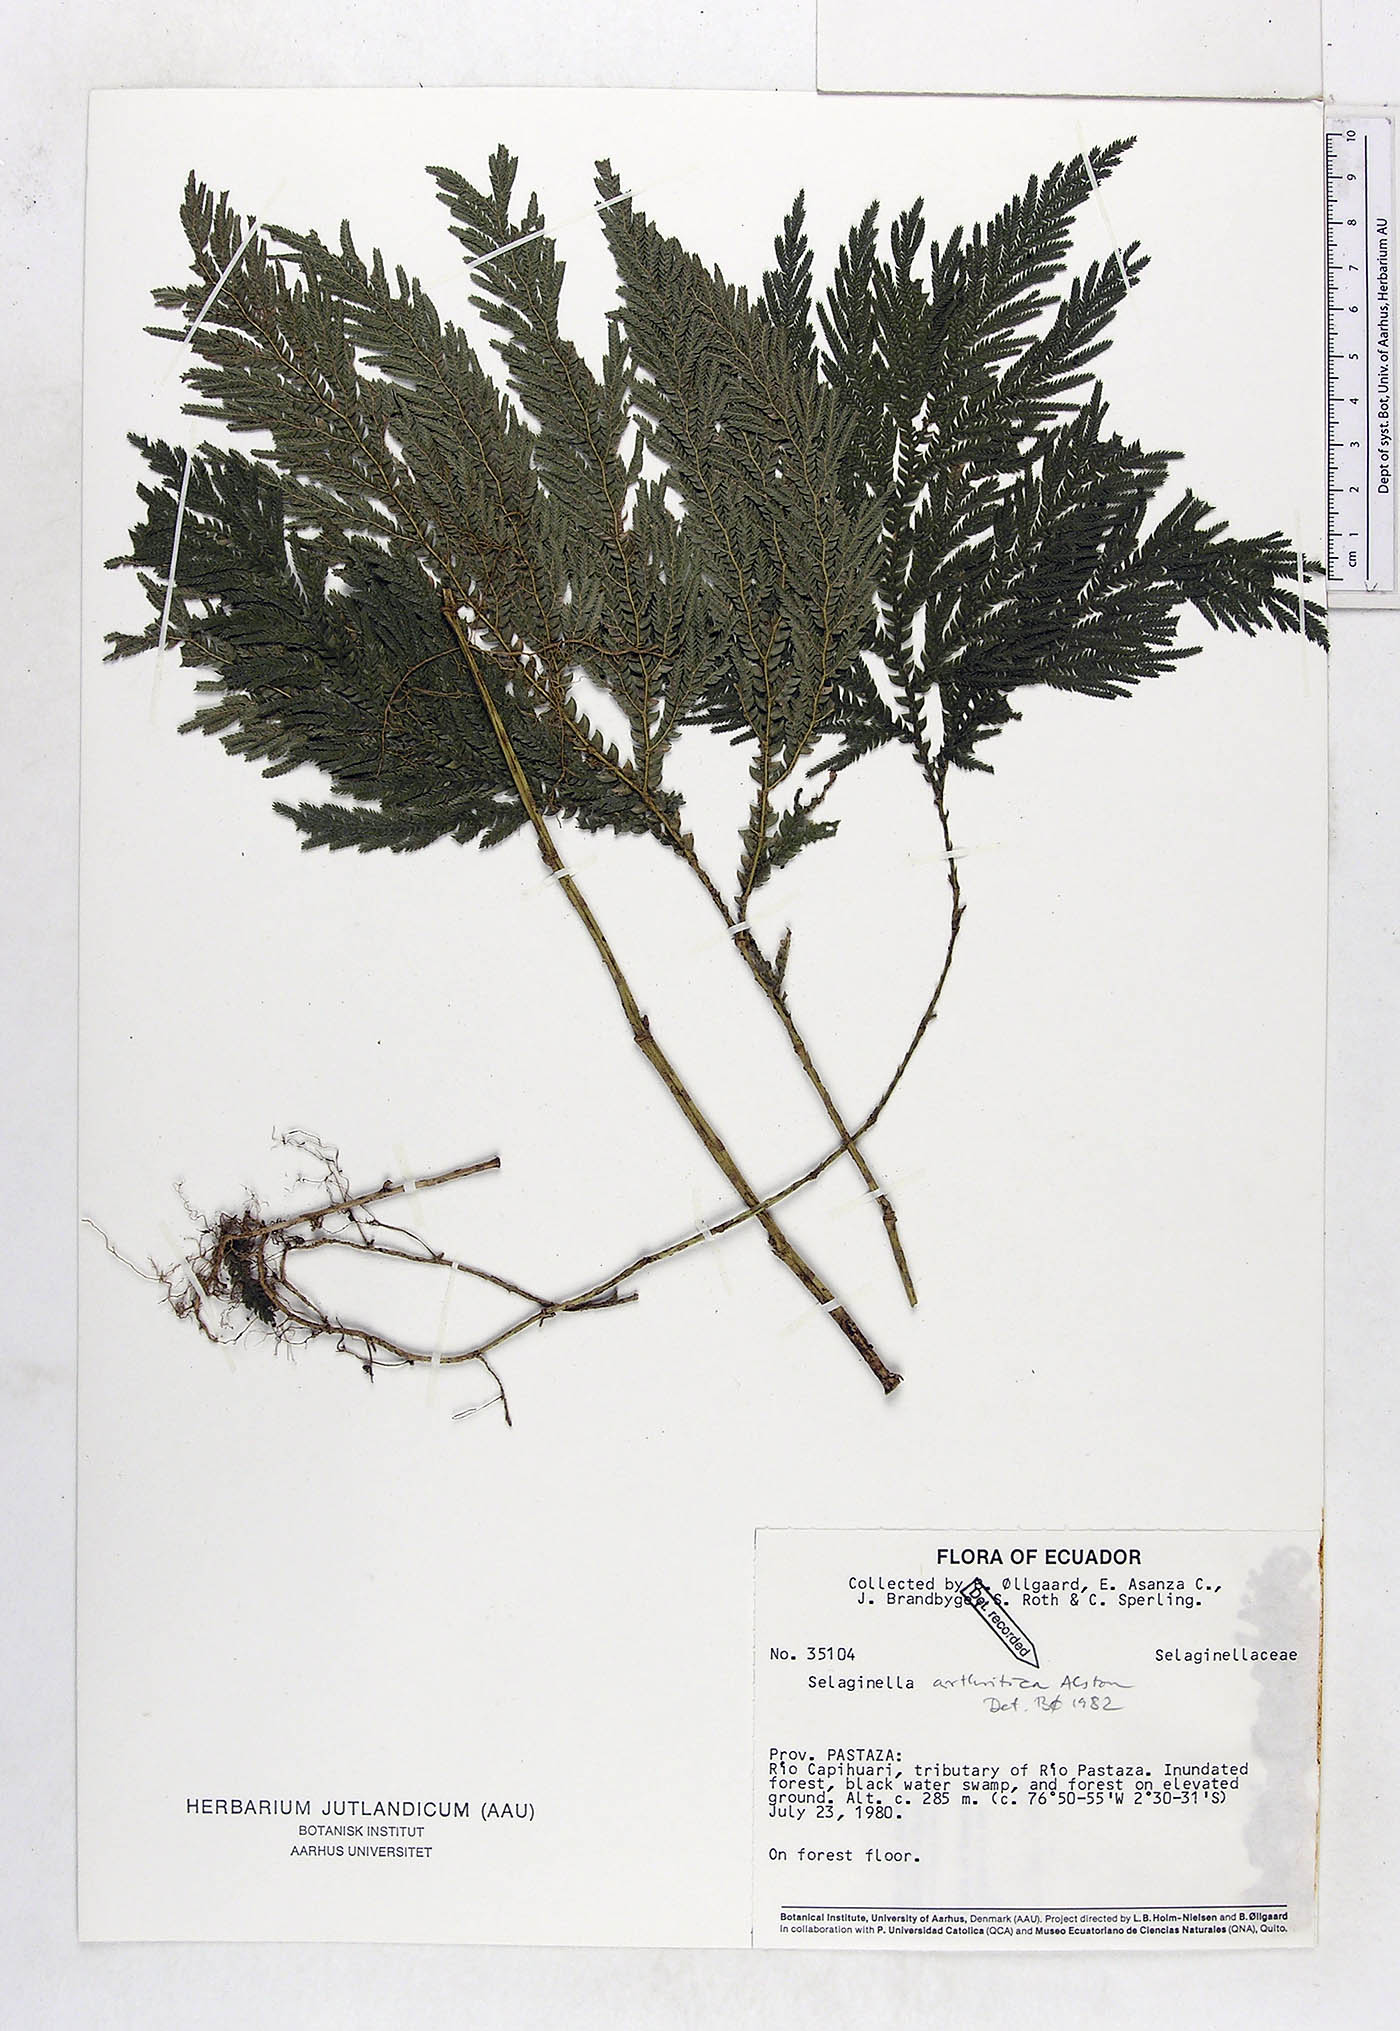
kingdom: Plantae
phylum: Tracheophyta
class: Lycopodiopsida
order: Selaginellales
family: Selaginellaceae
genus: Selaginella
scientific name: Selaginella arthritica
